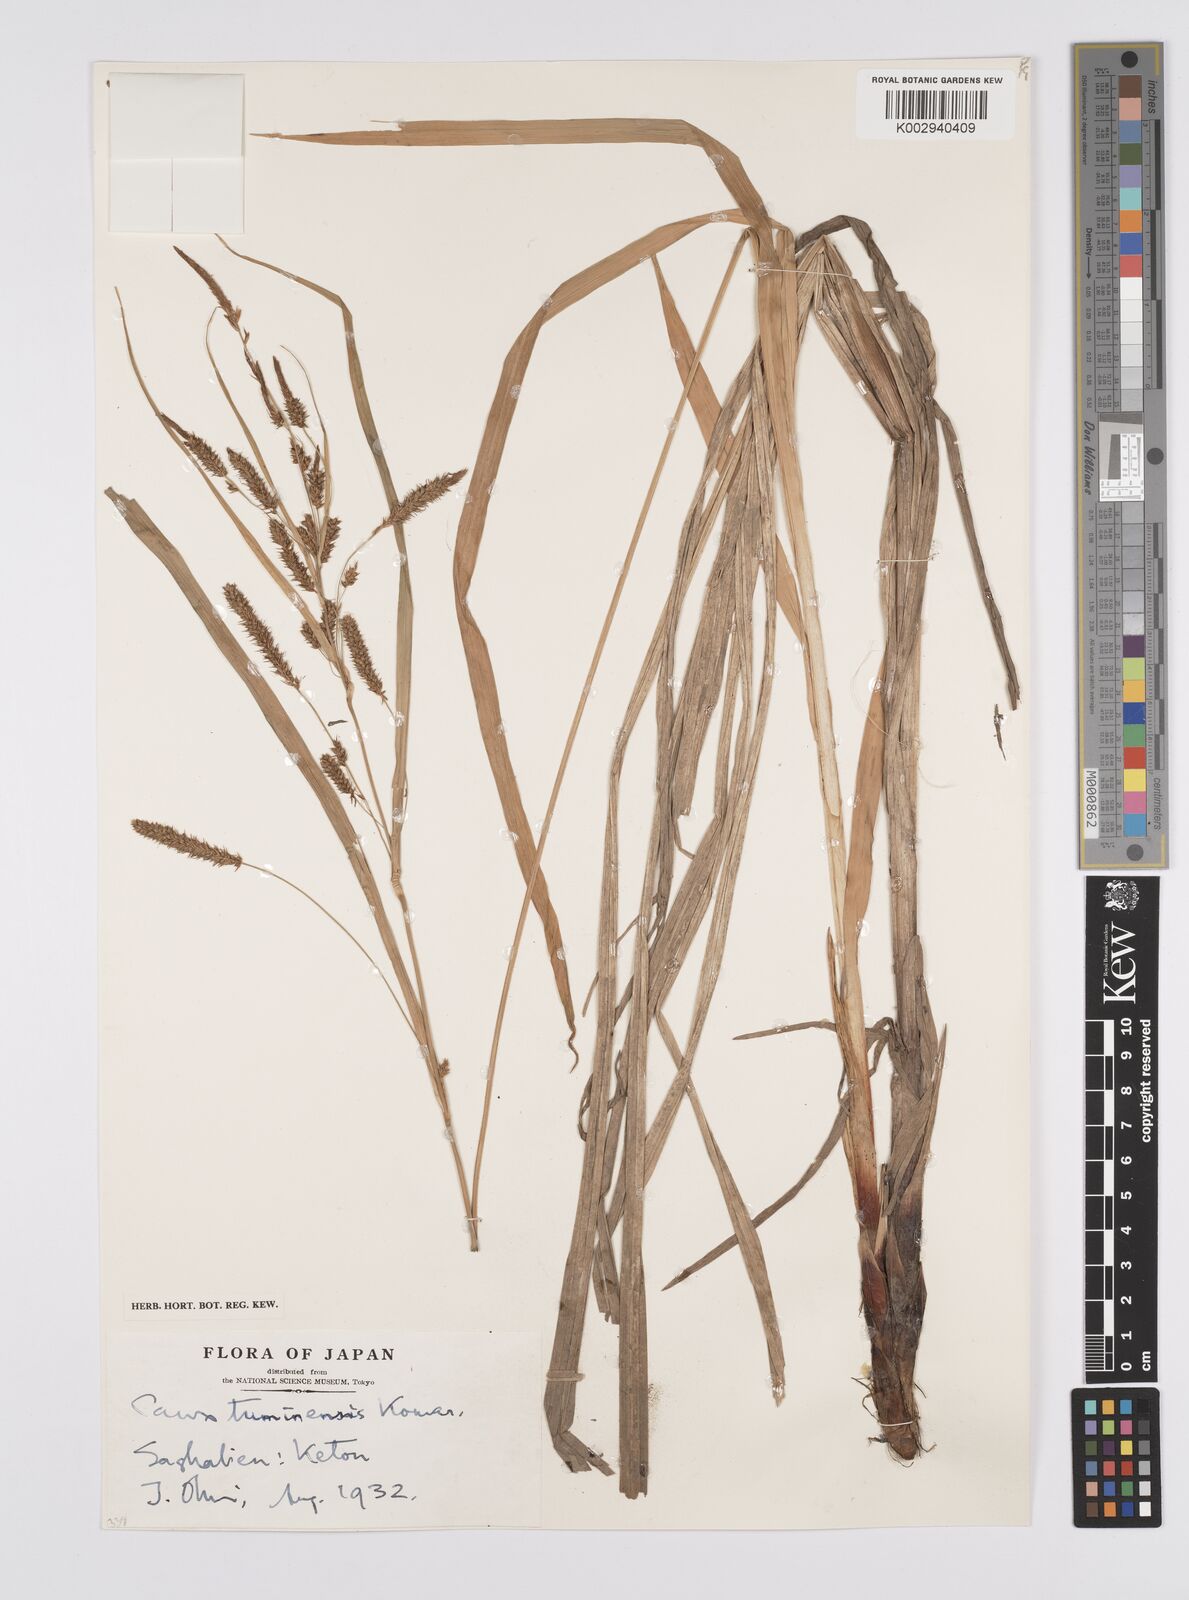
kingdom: Plantae
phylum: Tracheophyta
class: Liliopsida
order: Poales
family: Cyperaceae
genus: Carex
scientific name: Carex tuminensis
